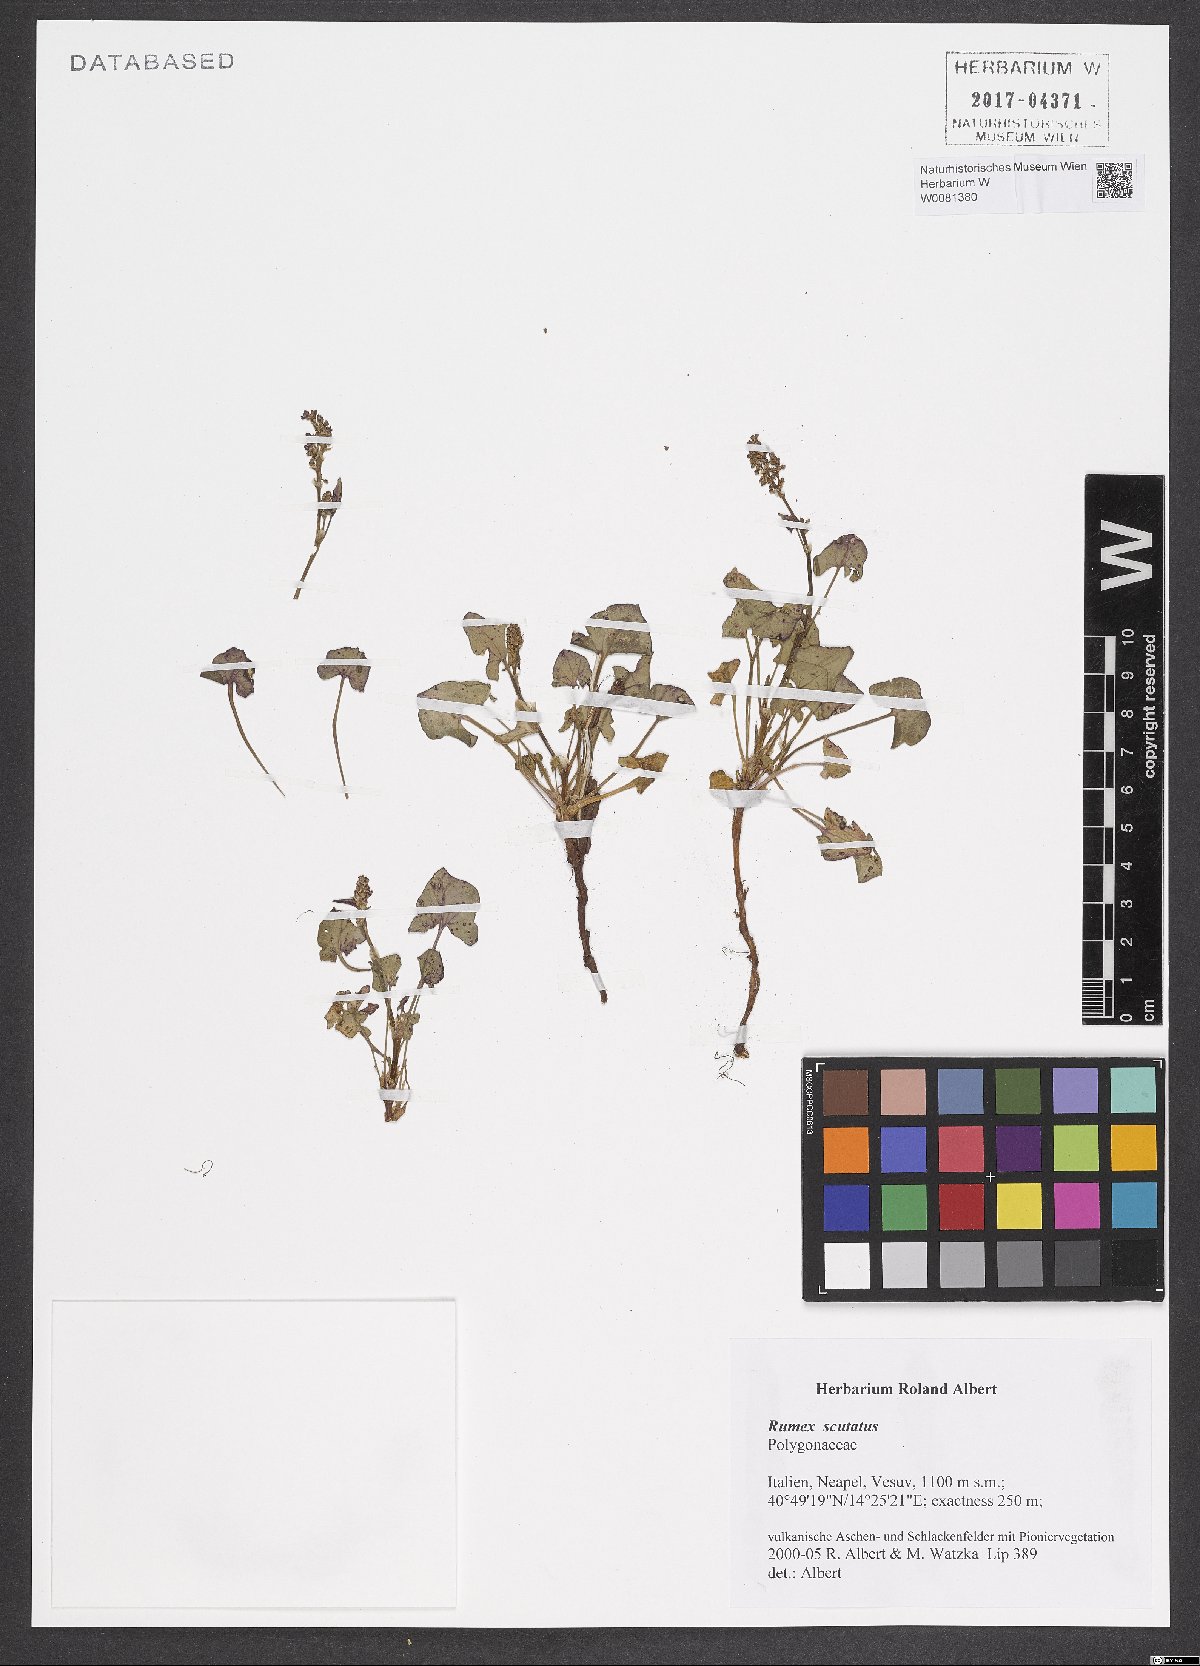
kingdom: Plantae
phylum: Tracheophyta
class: Magnoliopsida
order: Caryophyllales
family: Polygonaceae
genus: Rumex
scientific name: Rumex scutatus
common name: French sorrel
